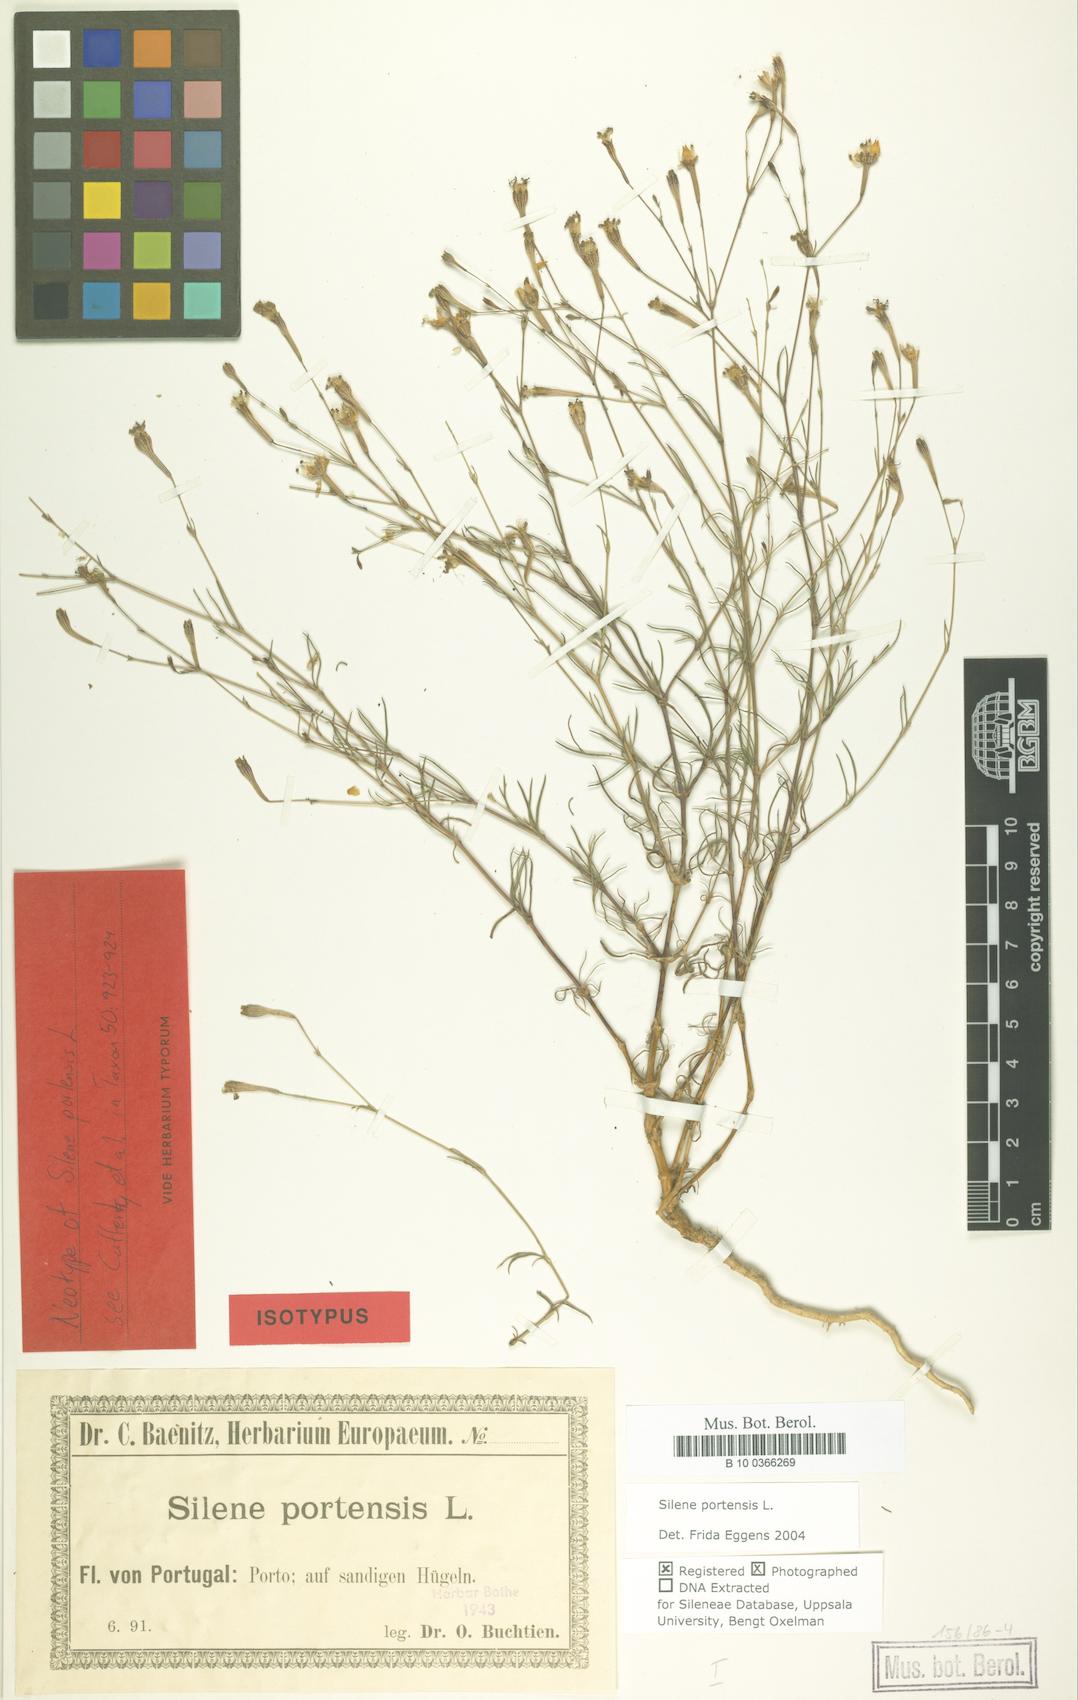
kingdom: Plantae
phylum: Tracheophyta
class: Magnoliopsida
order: Caryophyllales
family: Caryophyllaceae
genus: Silene
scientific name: Silene portensis
